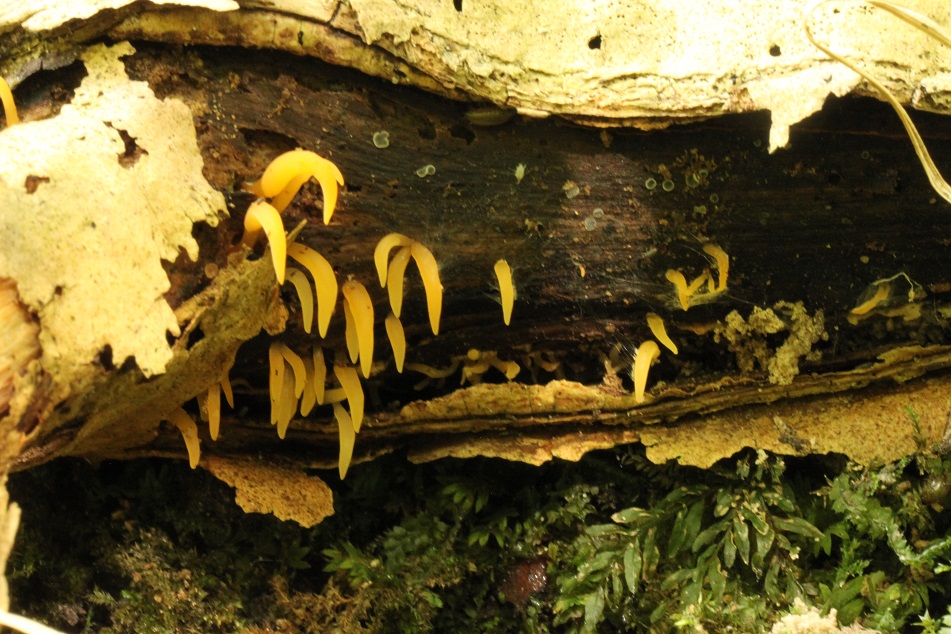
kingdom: Fungi
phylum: Basidiomycota
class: Dacrymycetes
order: Dacrymycetales
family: Dacrymycetaceae
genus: Calocera
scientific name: Calocera cornea
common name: liden guldgaffel
